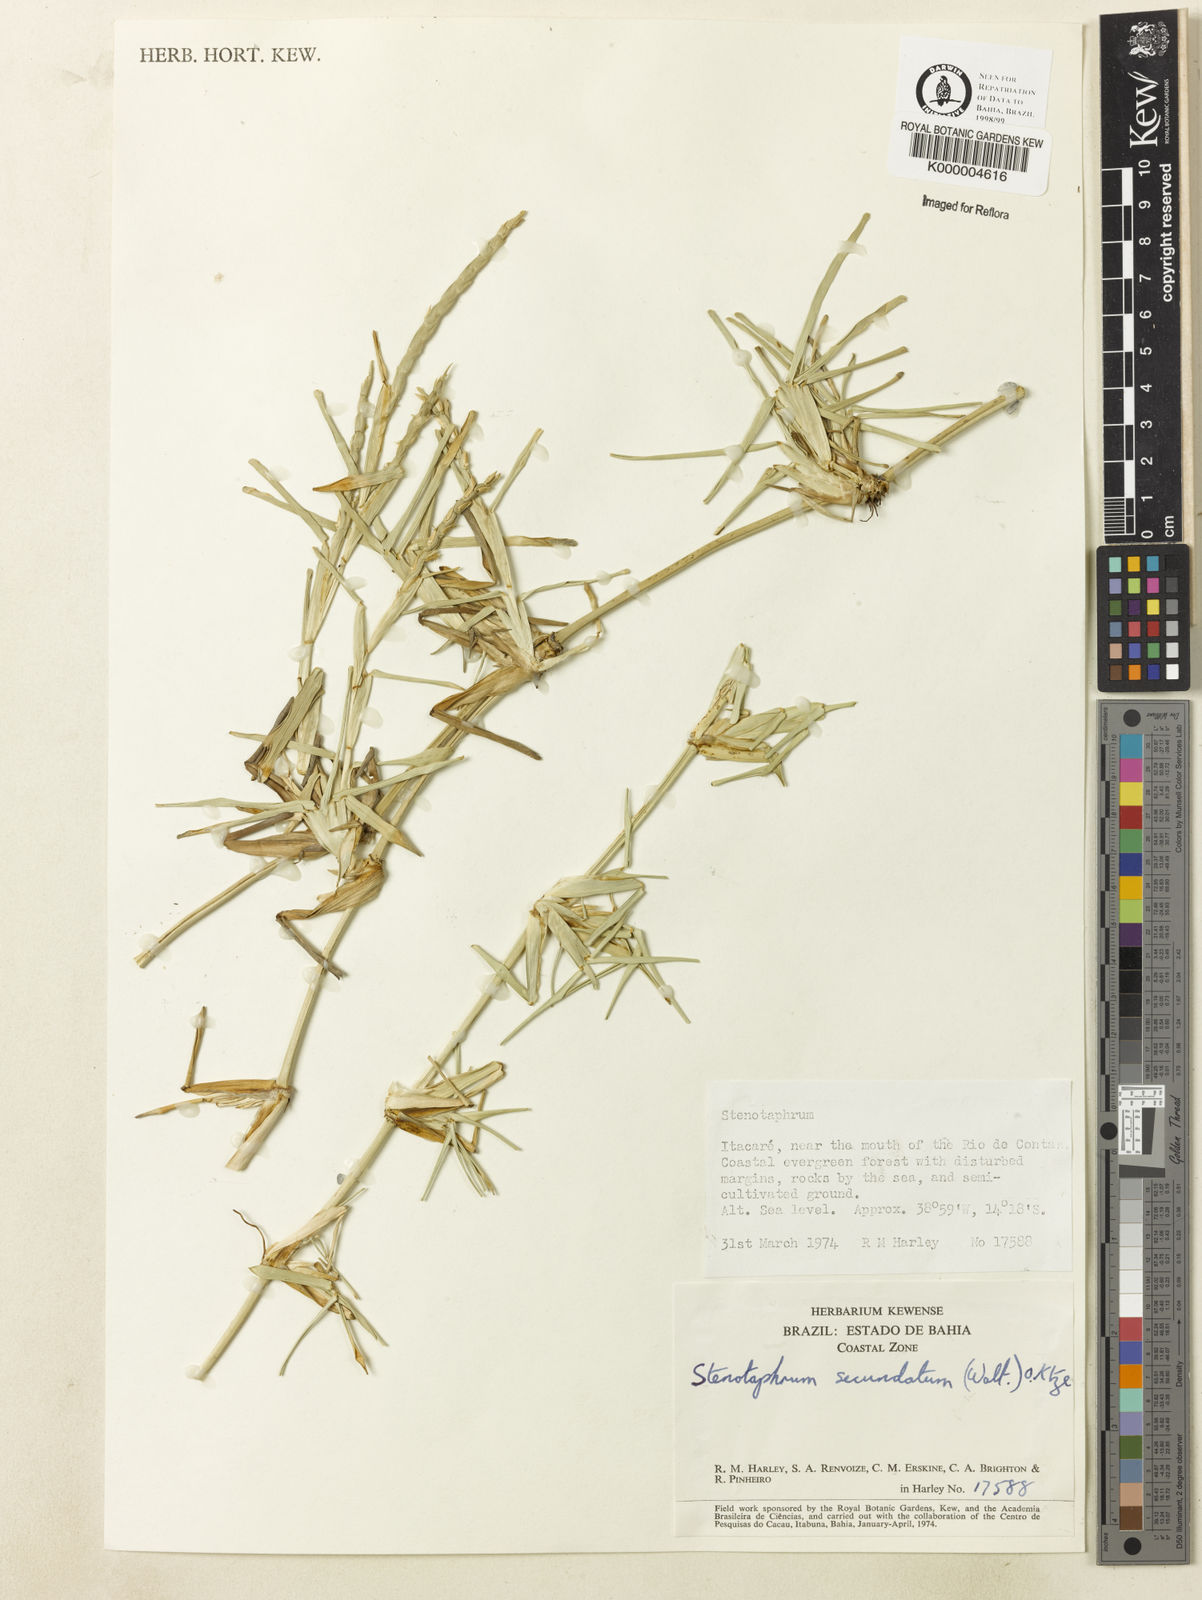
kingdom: Plantae
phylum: Tracheophyta
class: Liliopsida
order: Poales
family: Poaceae
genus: Stenotaphrum
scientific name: Stenotaphrum secundatum
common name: St. augustine grass
